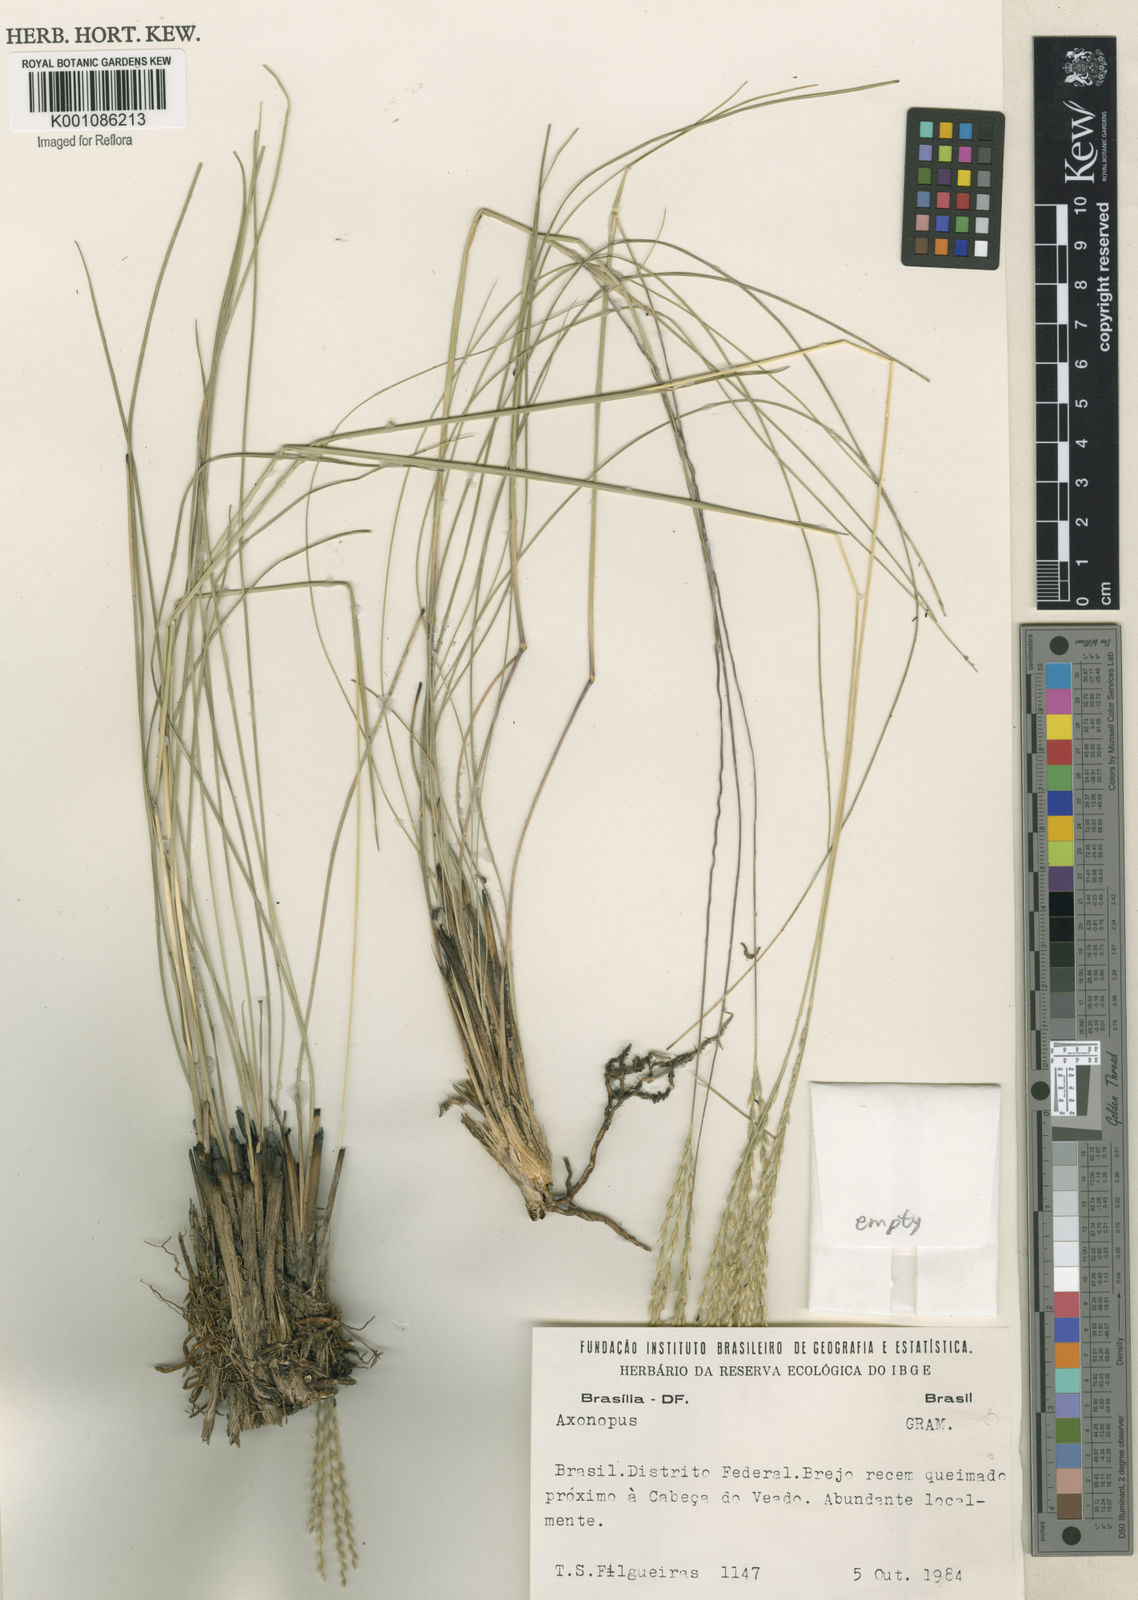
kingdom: Plantae
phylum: Tracheophyta
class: Liliopsida
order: Poales
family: Poaceae
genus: Axonopus
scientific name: Axonopus
